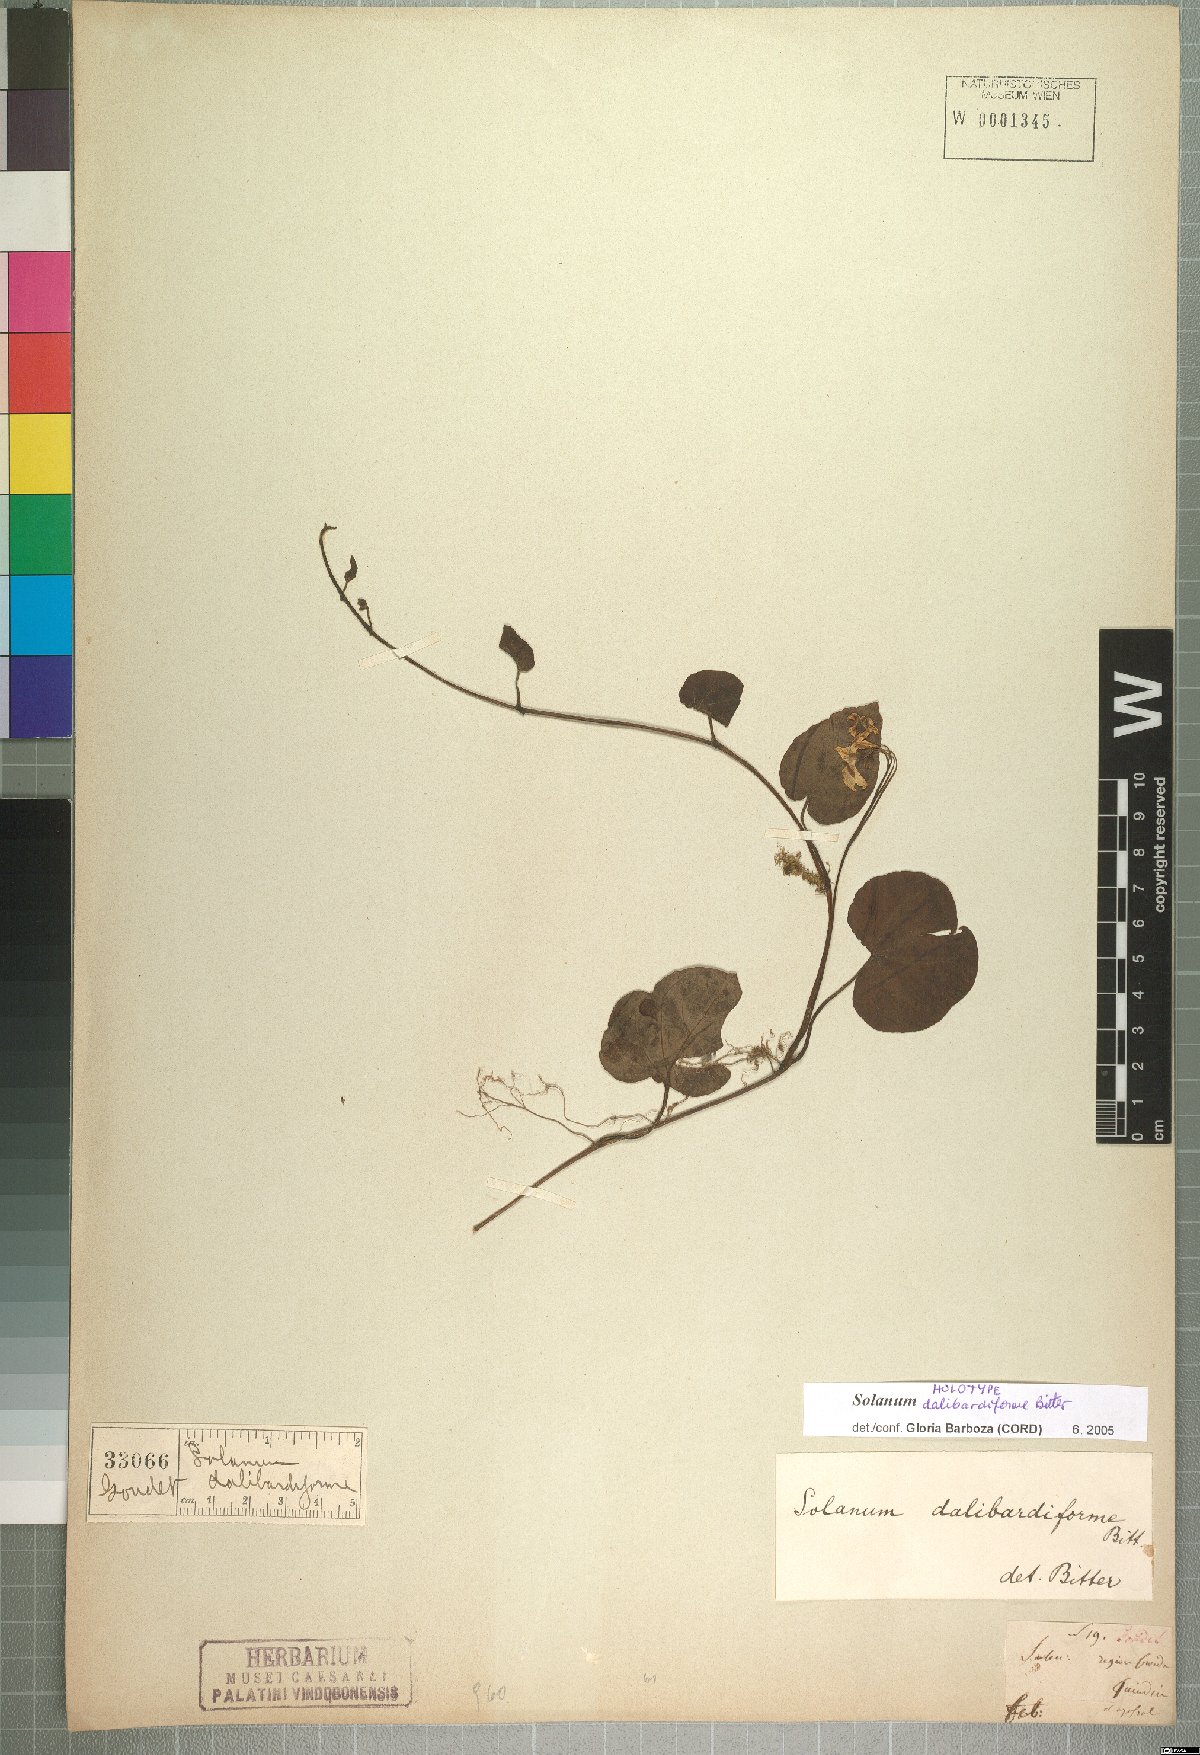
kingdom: Plantae
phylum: Tracheophyta
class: Magnoliopsida
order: Solanales
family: Solanaceae
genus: Solanum
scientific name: Solanum dalibardiforme
